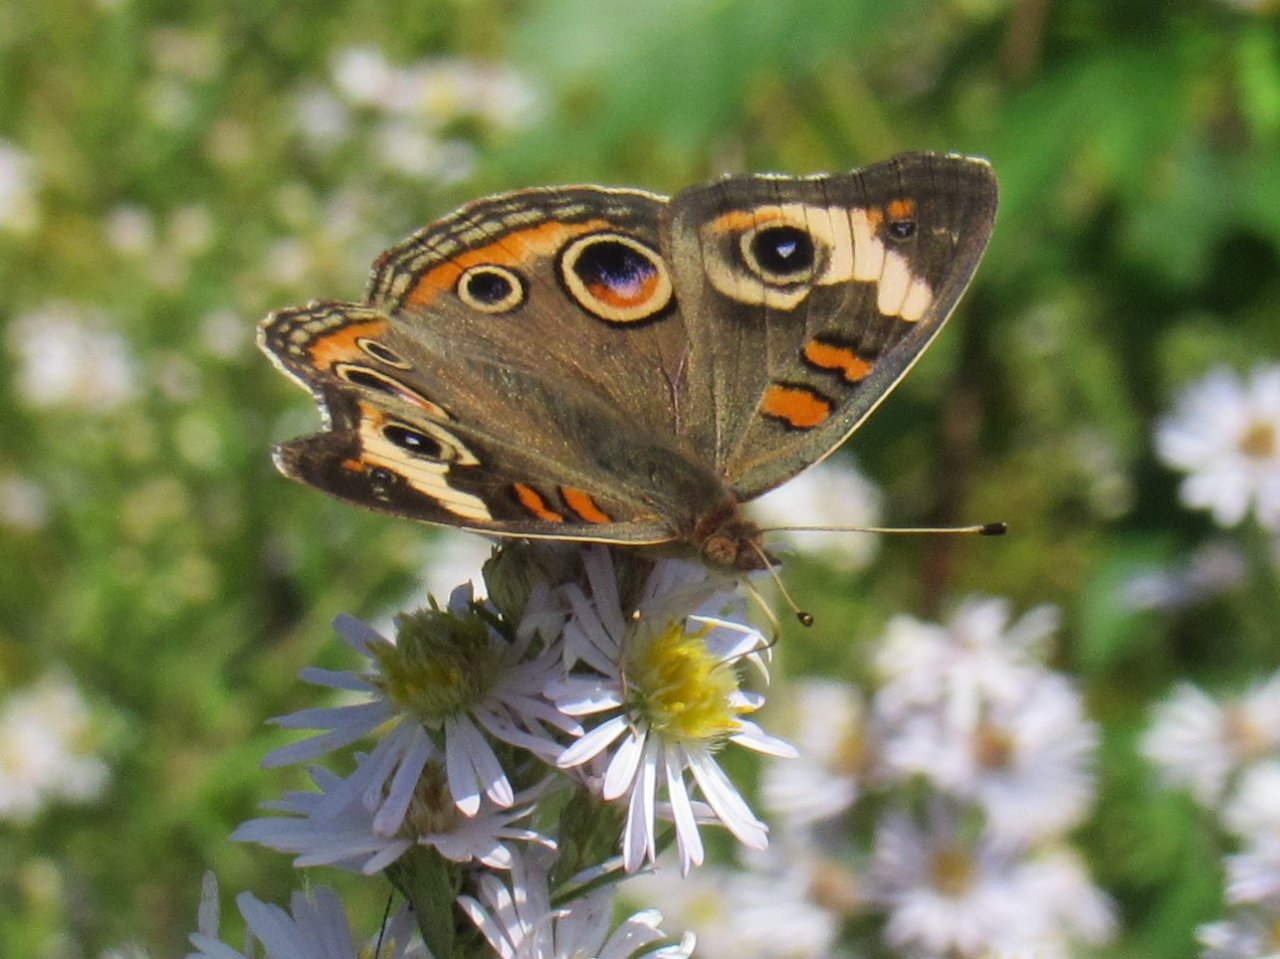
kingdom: Animalia
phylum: Arthropoda
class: Insecta
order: Lepidoptera
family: Nymphalidae
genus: Junonia
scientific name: Junonia coenia
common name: Common Buckeye
